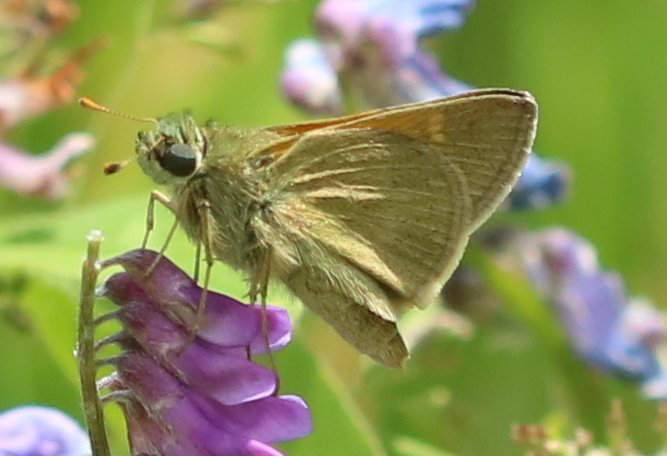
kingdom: Animalia
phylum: Arthropoda
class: Insecta
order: Lepidoptera
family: Hesperiidae
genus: Polites
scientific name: Polites themistocles
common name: Tawny-edged Skipper
